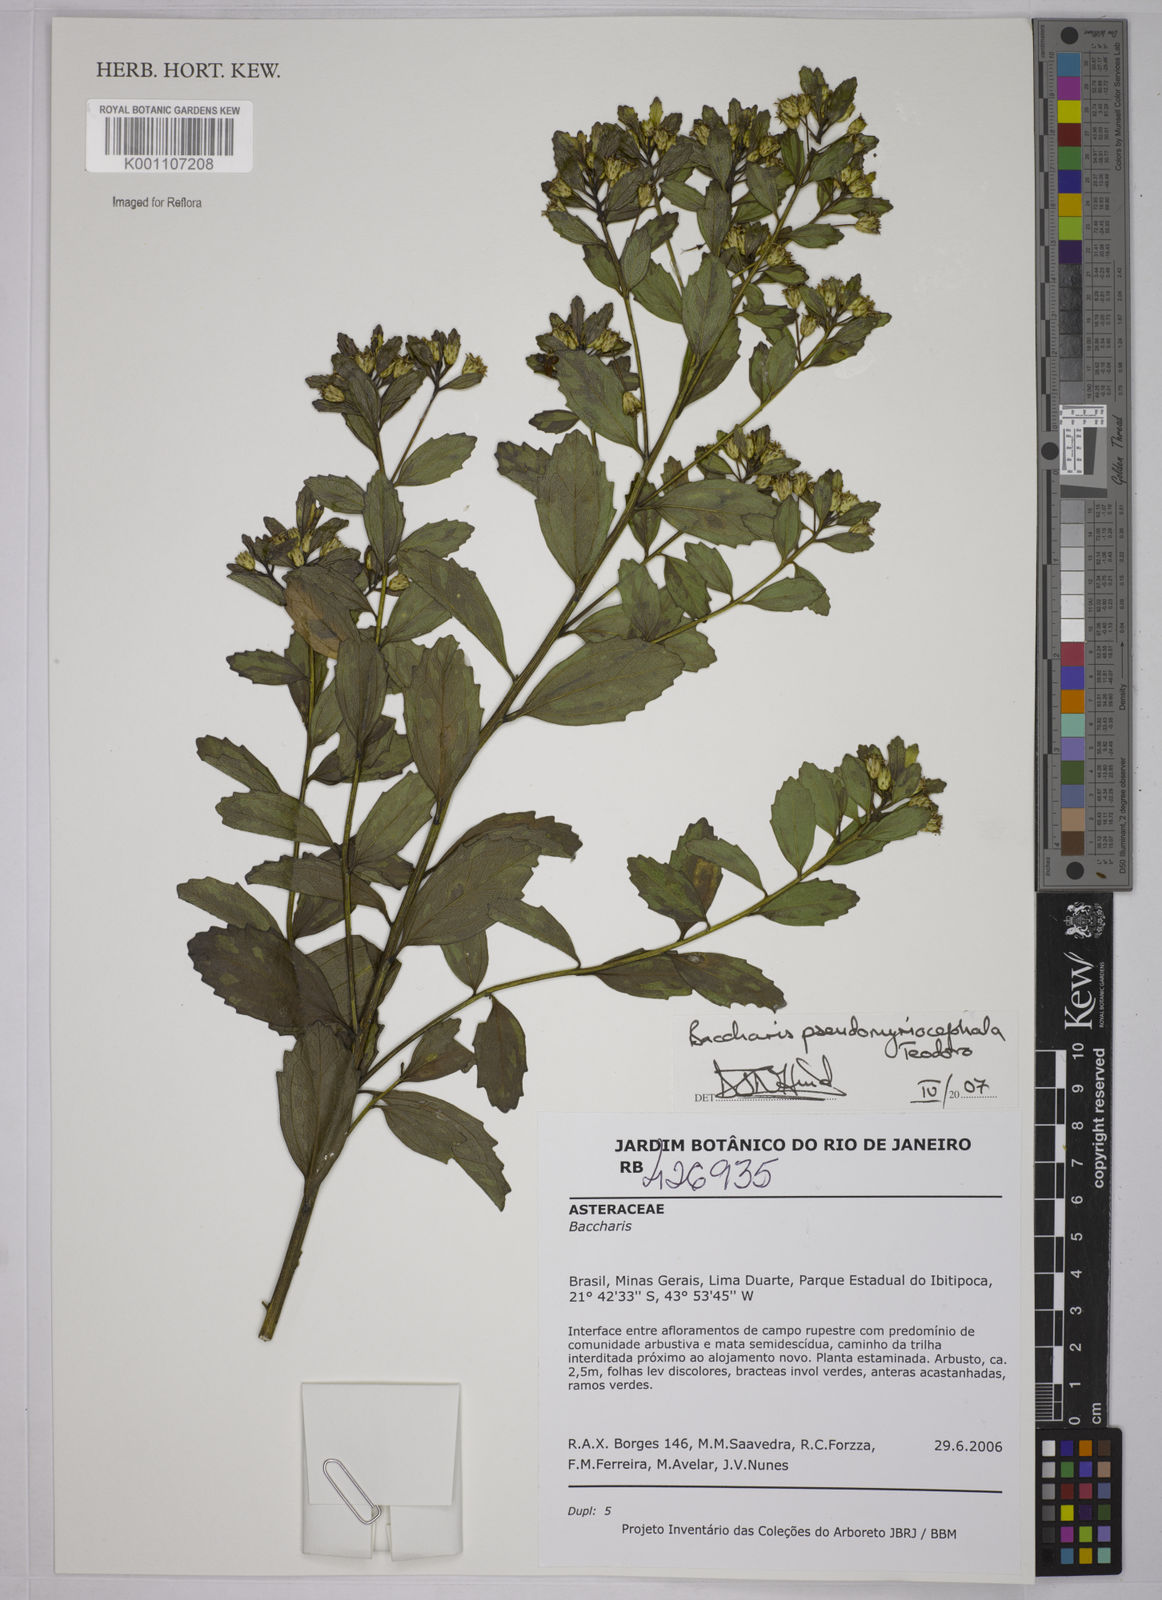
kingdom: Plantae
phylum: Tracheophyta
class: Magnoliopsida
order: Asterales
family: Asteraceae
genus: Baccharis
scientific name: Baccharis pseudomyriocephala
